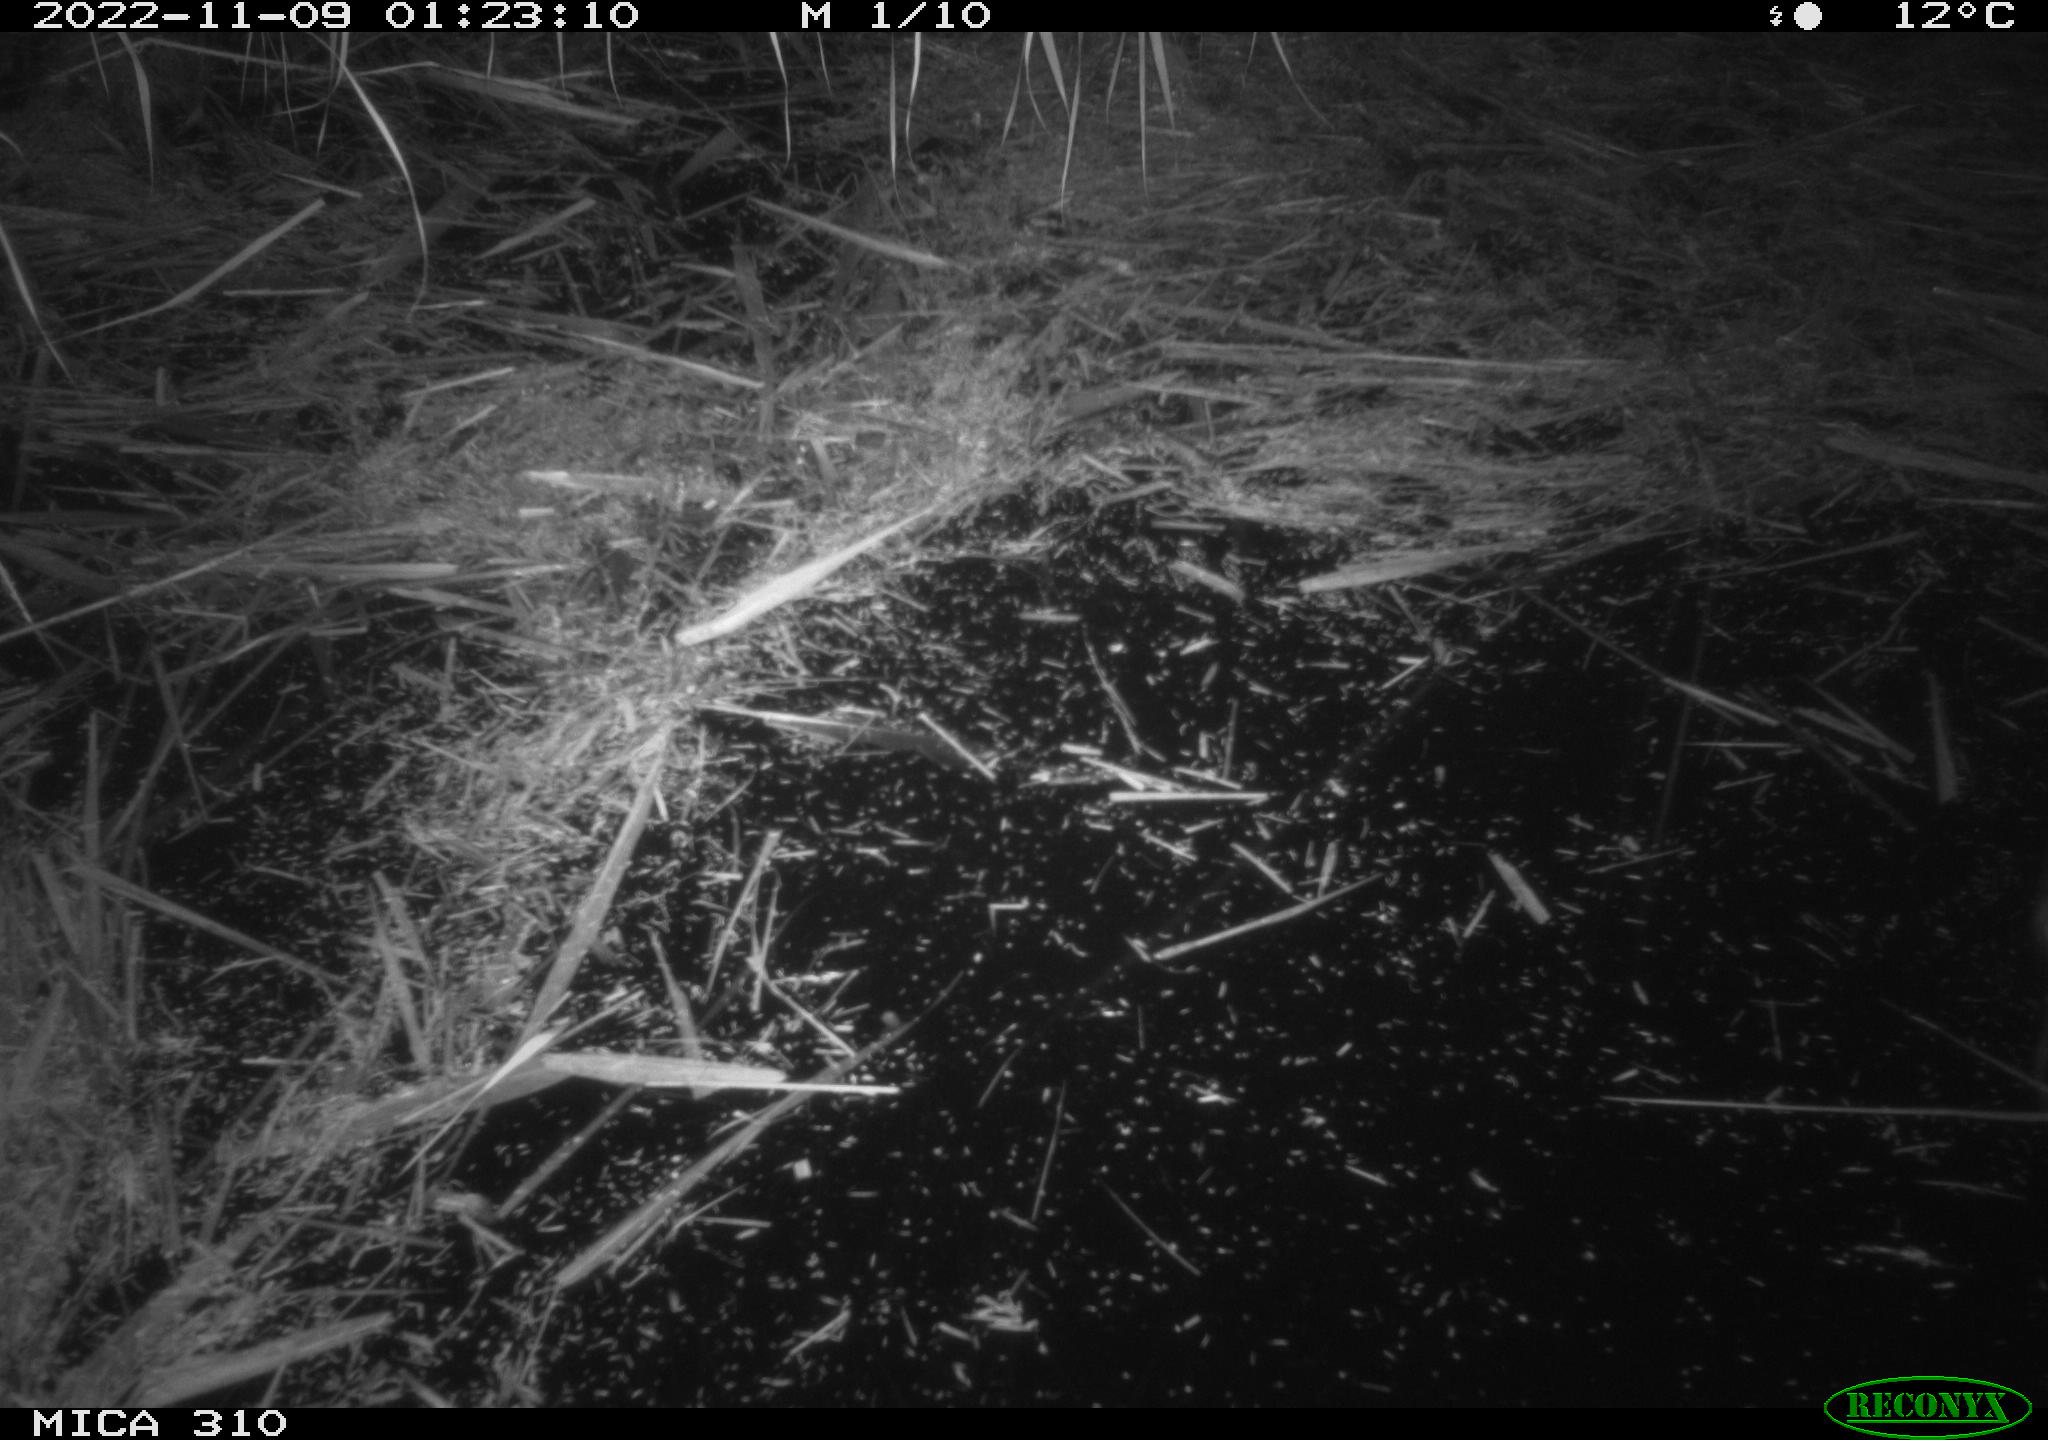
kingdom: Animalia
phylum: Chordata
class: Mammalia
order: Rodentia
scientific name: Rodentia
